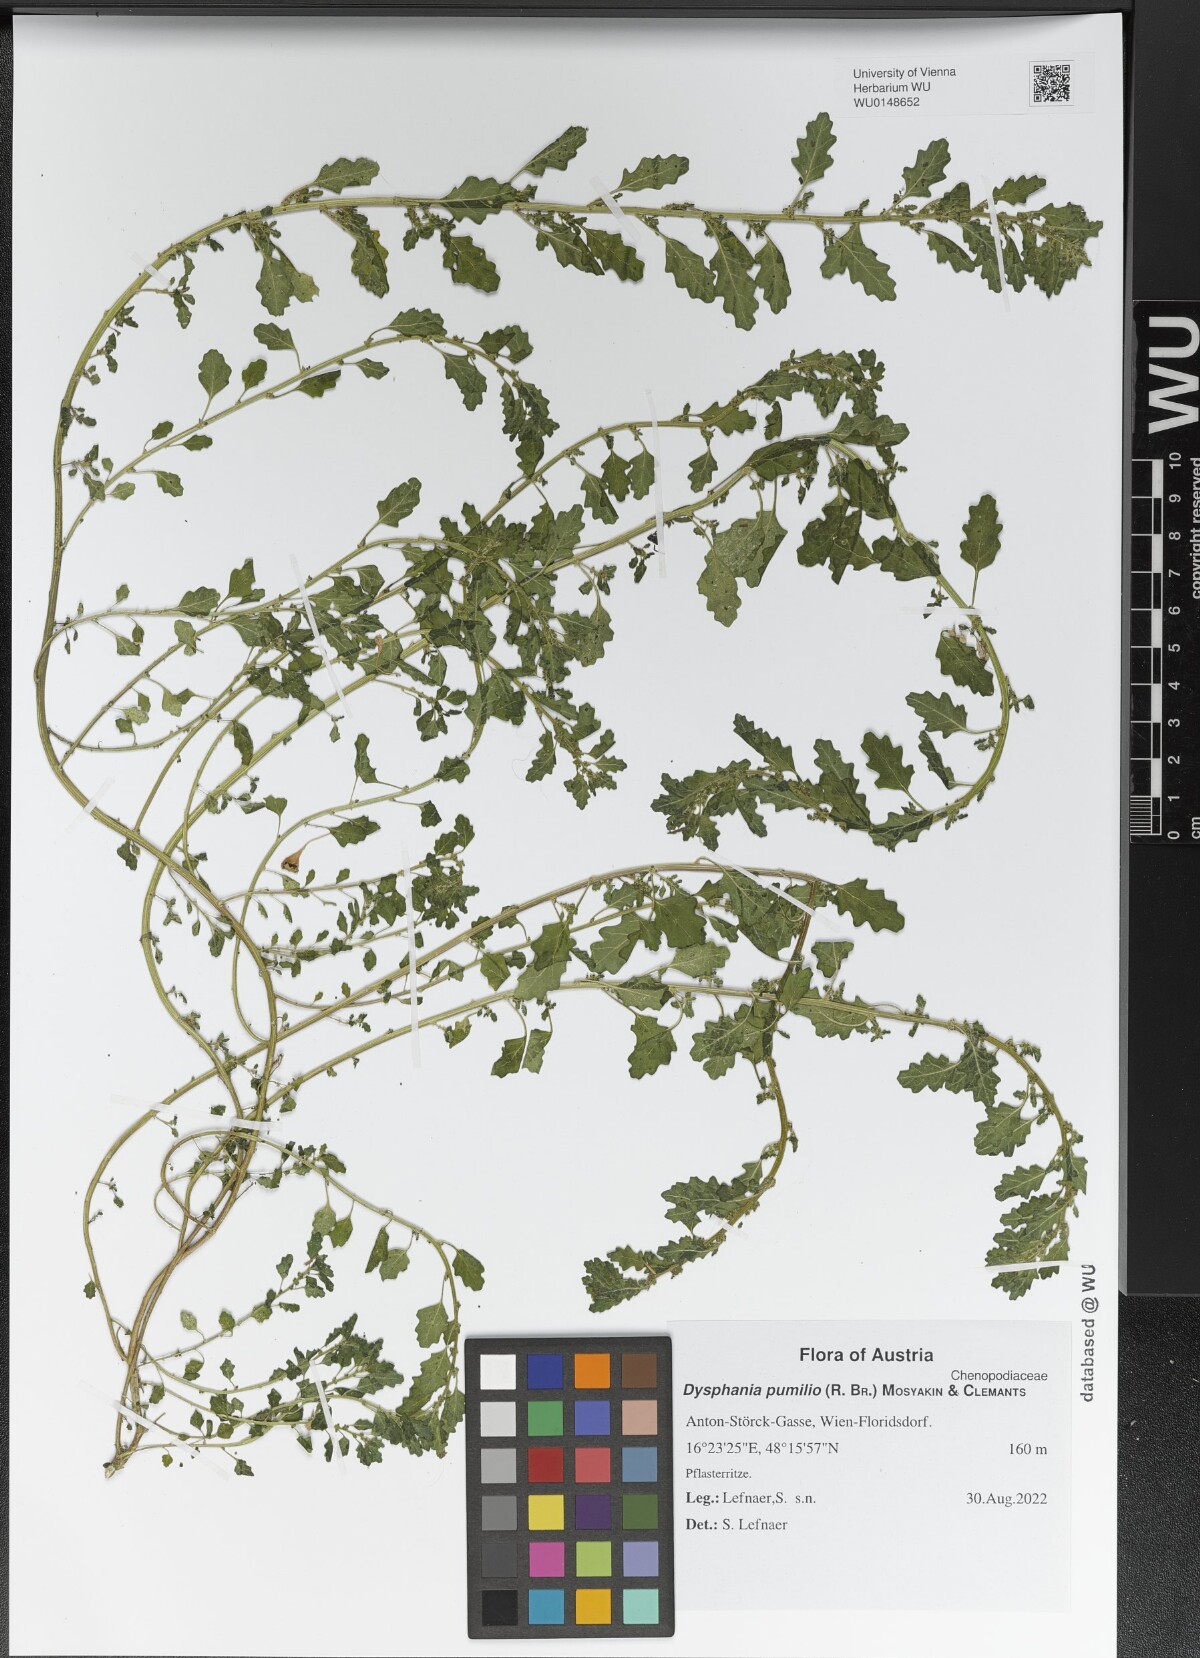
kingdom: Plantae
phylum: Tracheophyta
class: Magnoliopsida
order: Caryophyllales
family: Amaranthaceae
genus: Dysphania
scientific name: Dysphania pumilio
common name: Clammy goosefoot
